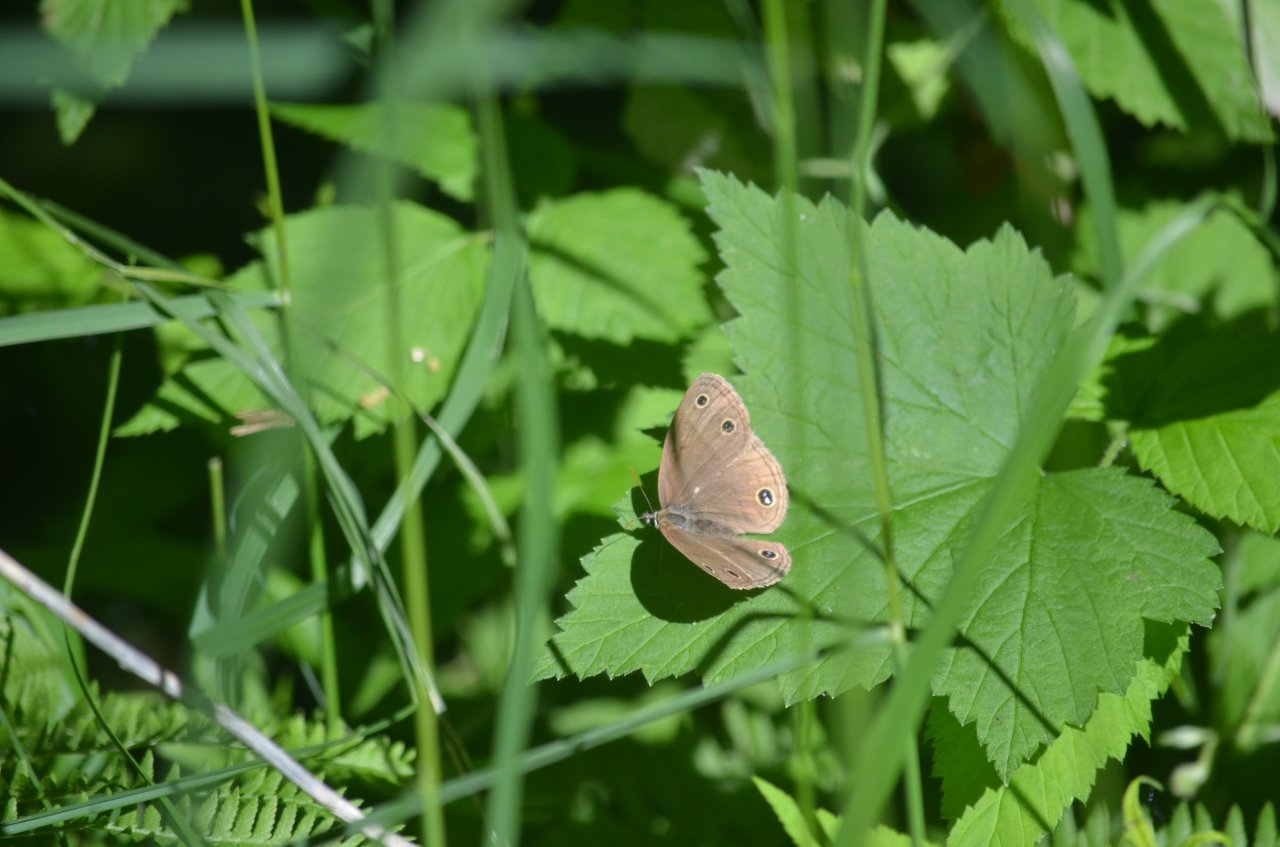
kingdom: Animalia
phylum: Arthropoda
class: Insecta
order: Lepidoptera
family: Nymphalidae
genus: Euptychia
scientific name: Euptychia cymela
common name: Little Wood Satyr
